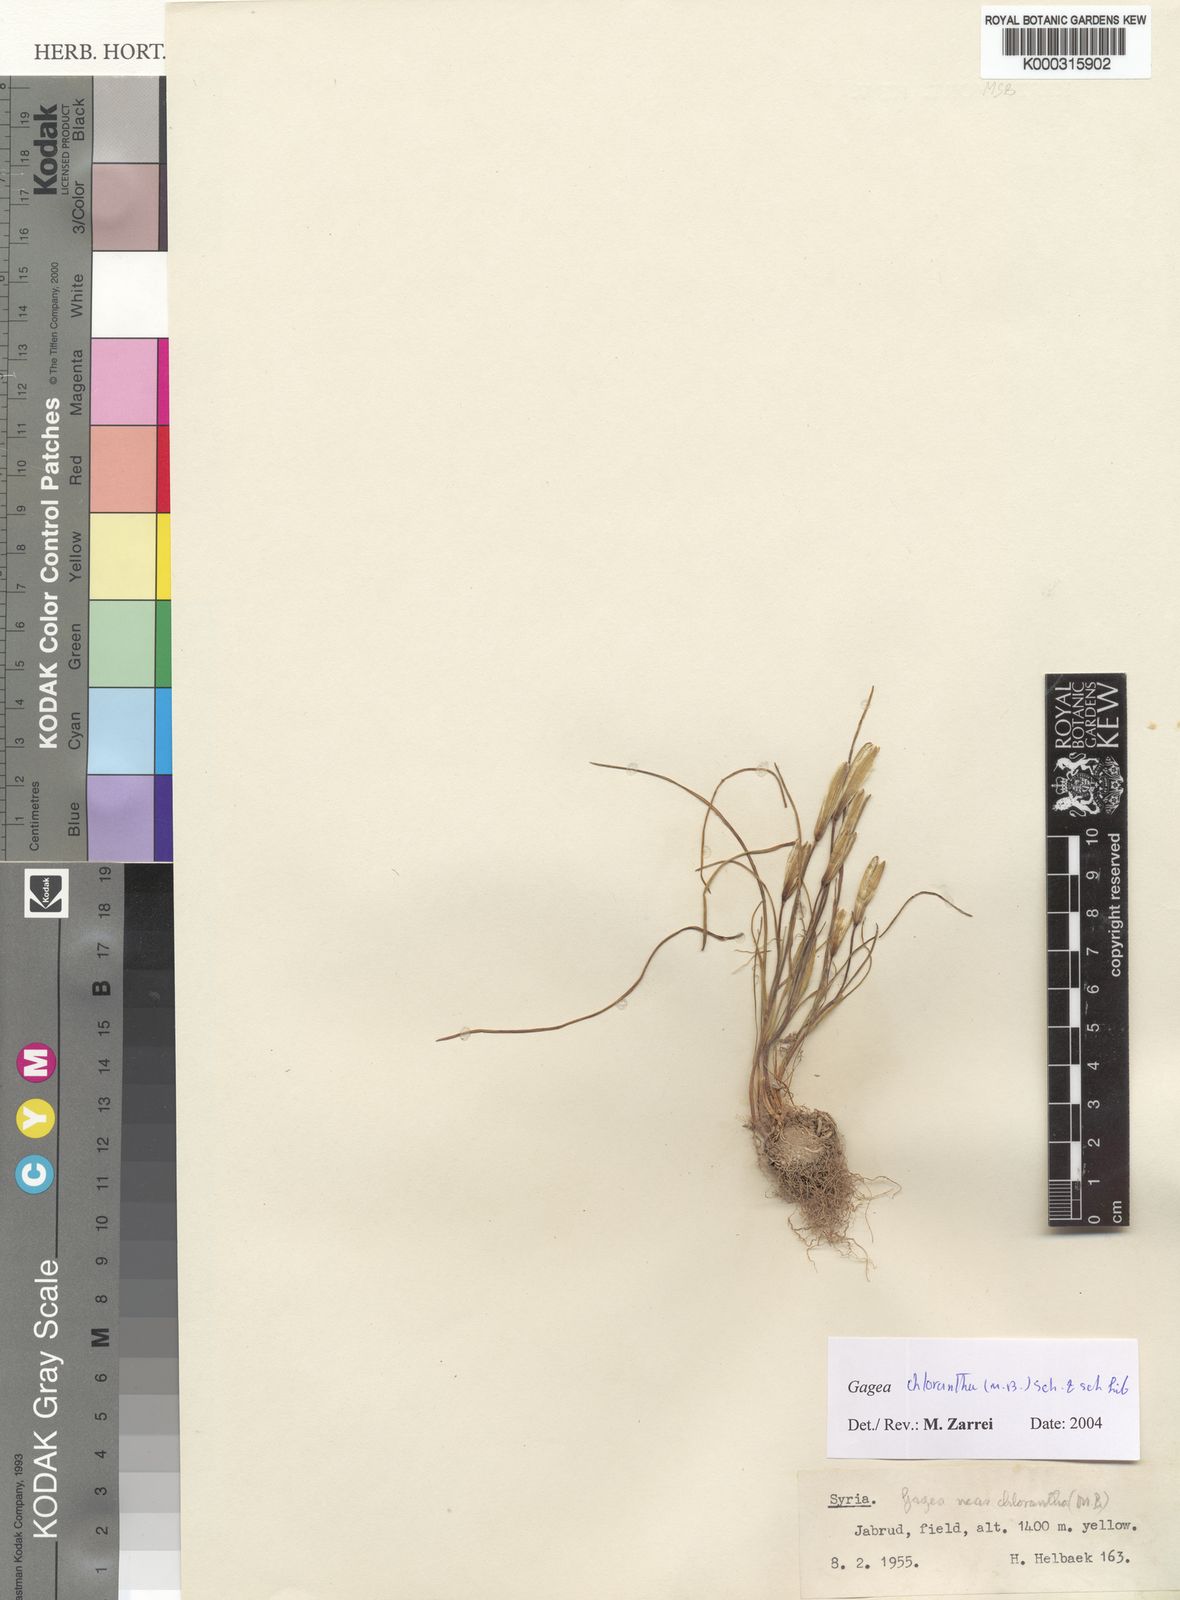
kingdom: Plantae
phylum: Tracheophyta
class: Liliopsida
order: Liliales
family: Liliaceae
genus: Gagea
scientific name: Gagea chlorantha
